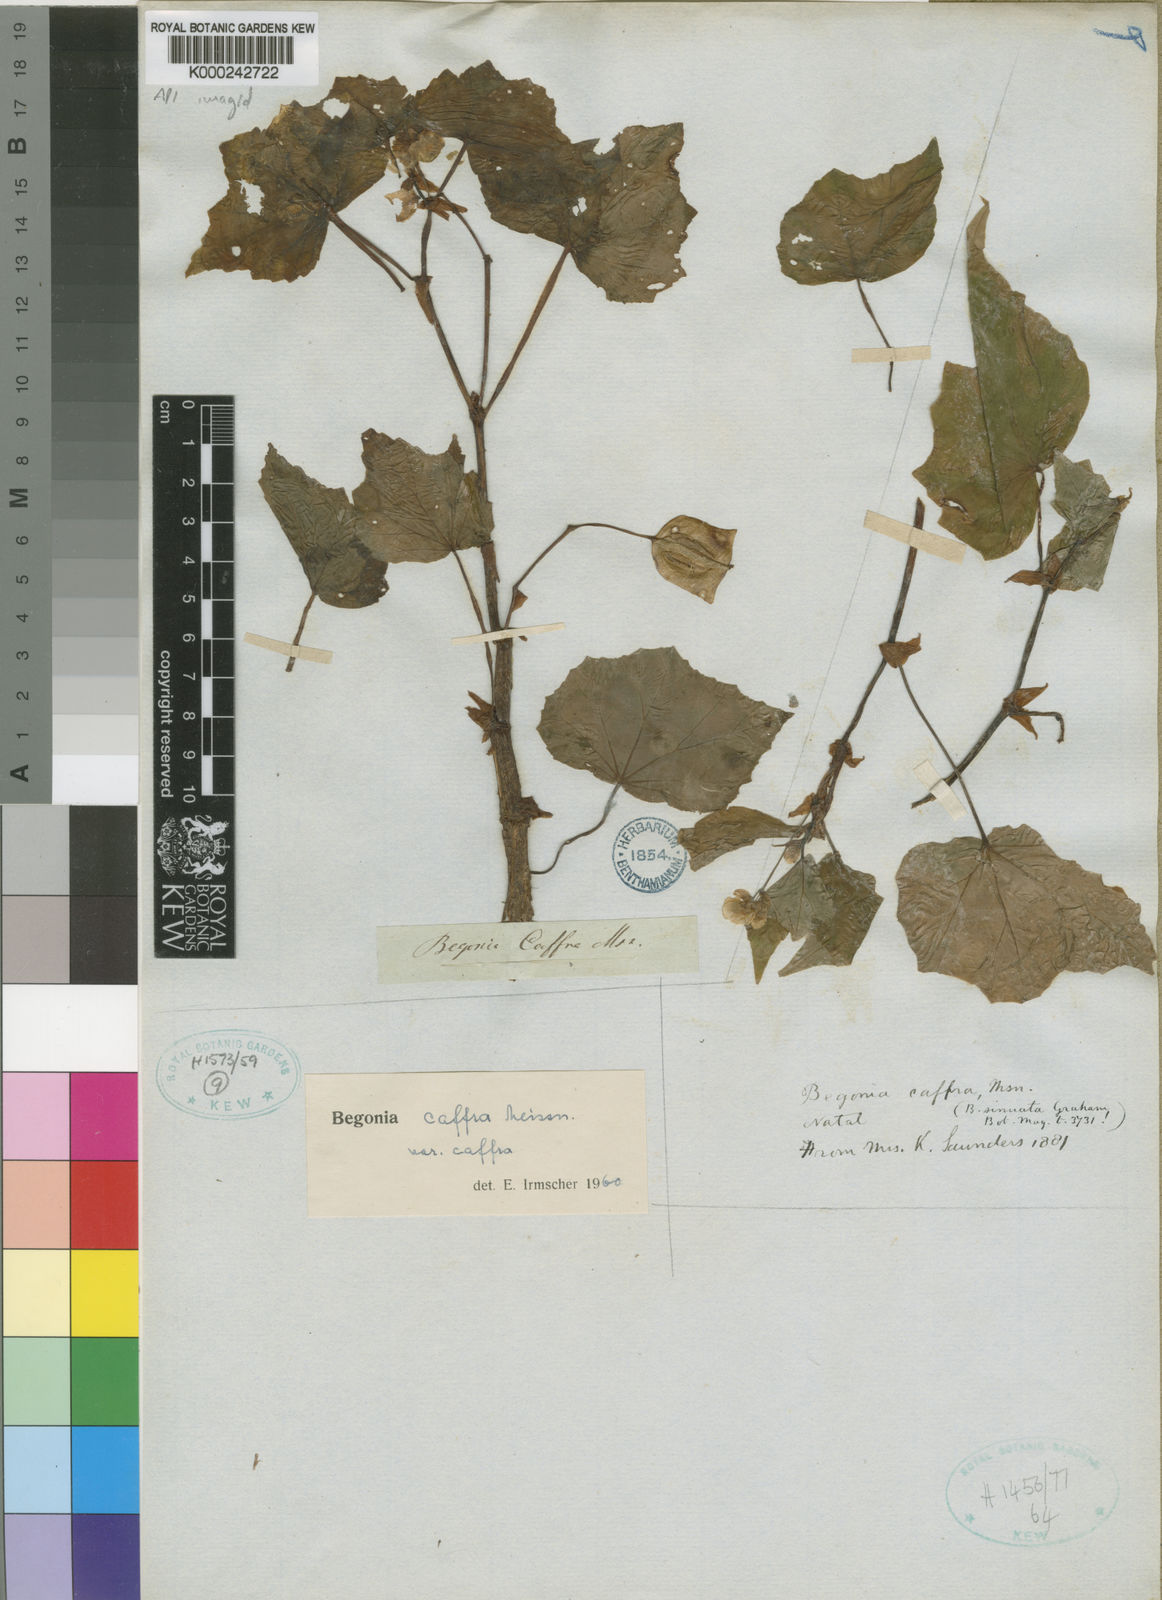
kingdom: Plantae
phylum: Tracheophyta
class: Magnoliopsida
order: Cucurbitales
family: Begoniaceae
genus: Begonia
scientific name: Begonia homonyma
